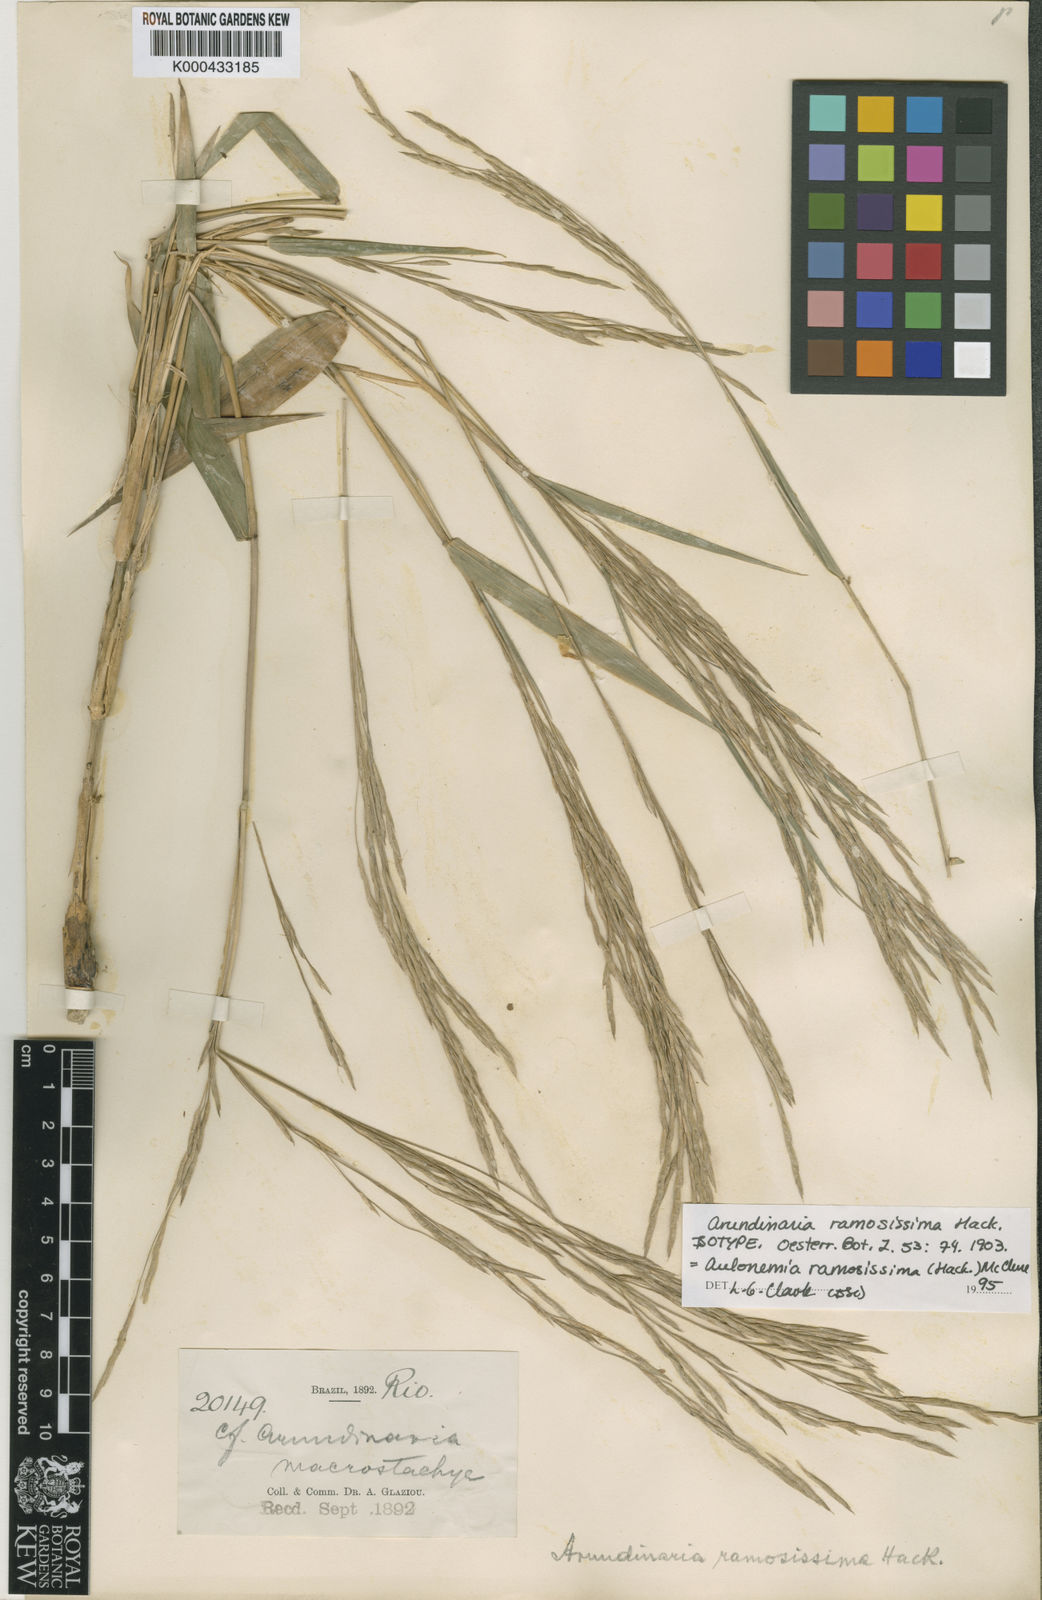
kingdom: Plantae
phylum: Tracheophyta
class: Liliopsida
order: Poales
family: Poaceae
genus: Aulonemia
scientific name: Aulonemia radiata
